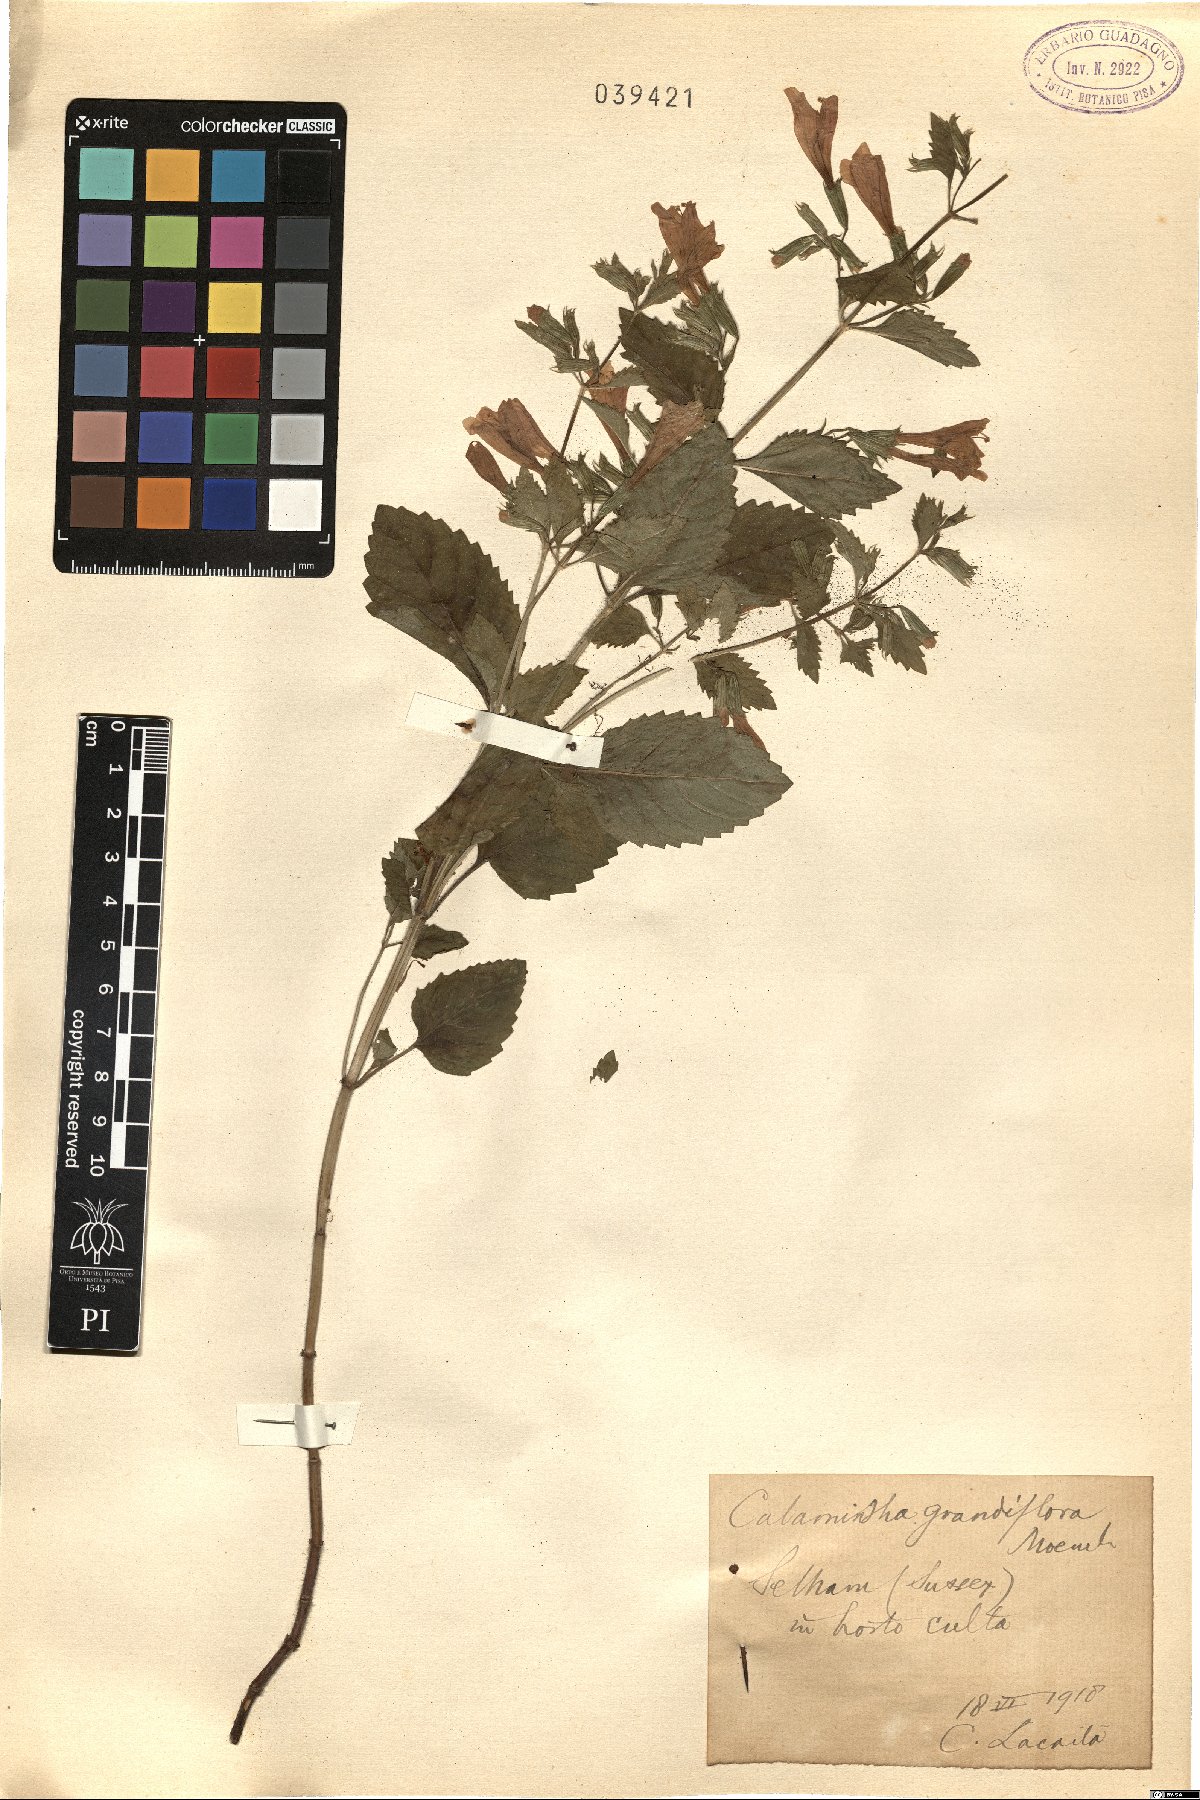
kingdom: Plantae
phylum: Tracheophyta
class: Magnoliopsida
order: Lamiales
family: Lamiaceae
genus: Clinopodium
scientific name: Clinopodium grandiflorum
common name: Greater calamint
